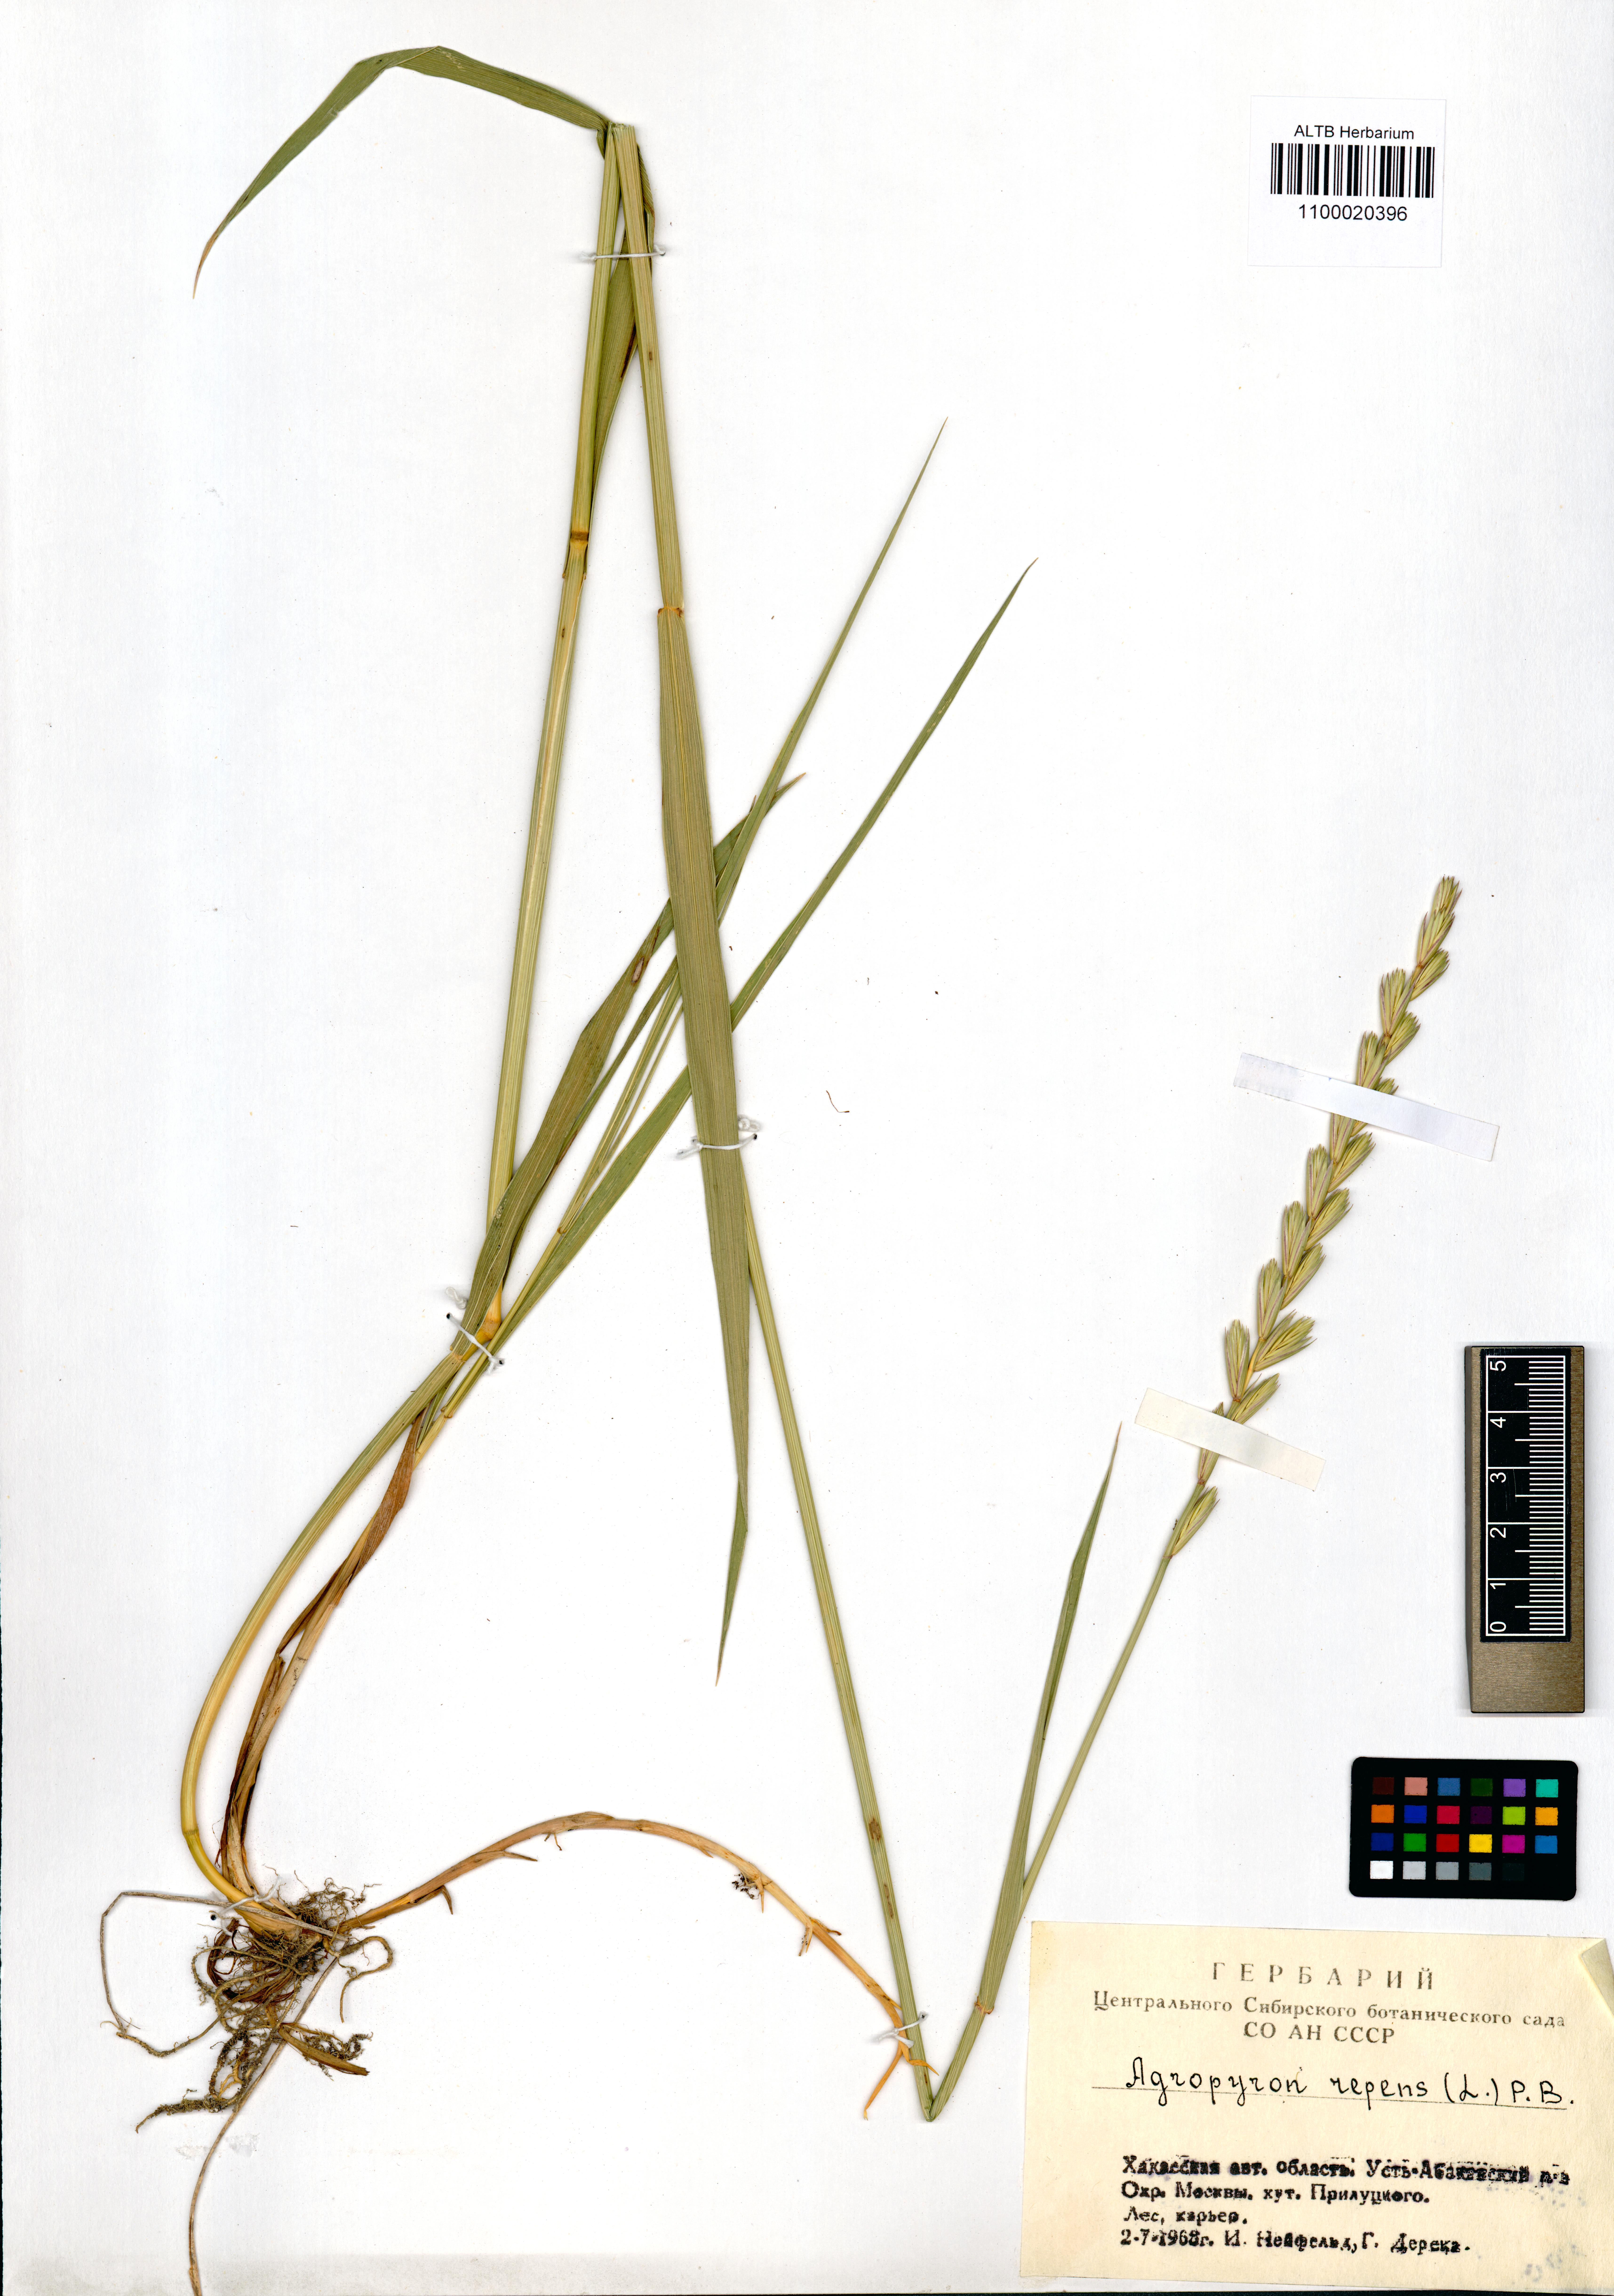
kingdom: Plantae
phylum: Tracheophyta
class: Liliopsida
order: Poales
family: Poaceae
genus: Elymus
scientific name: Elymus repens
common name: Quackgrass
